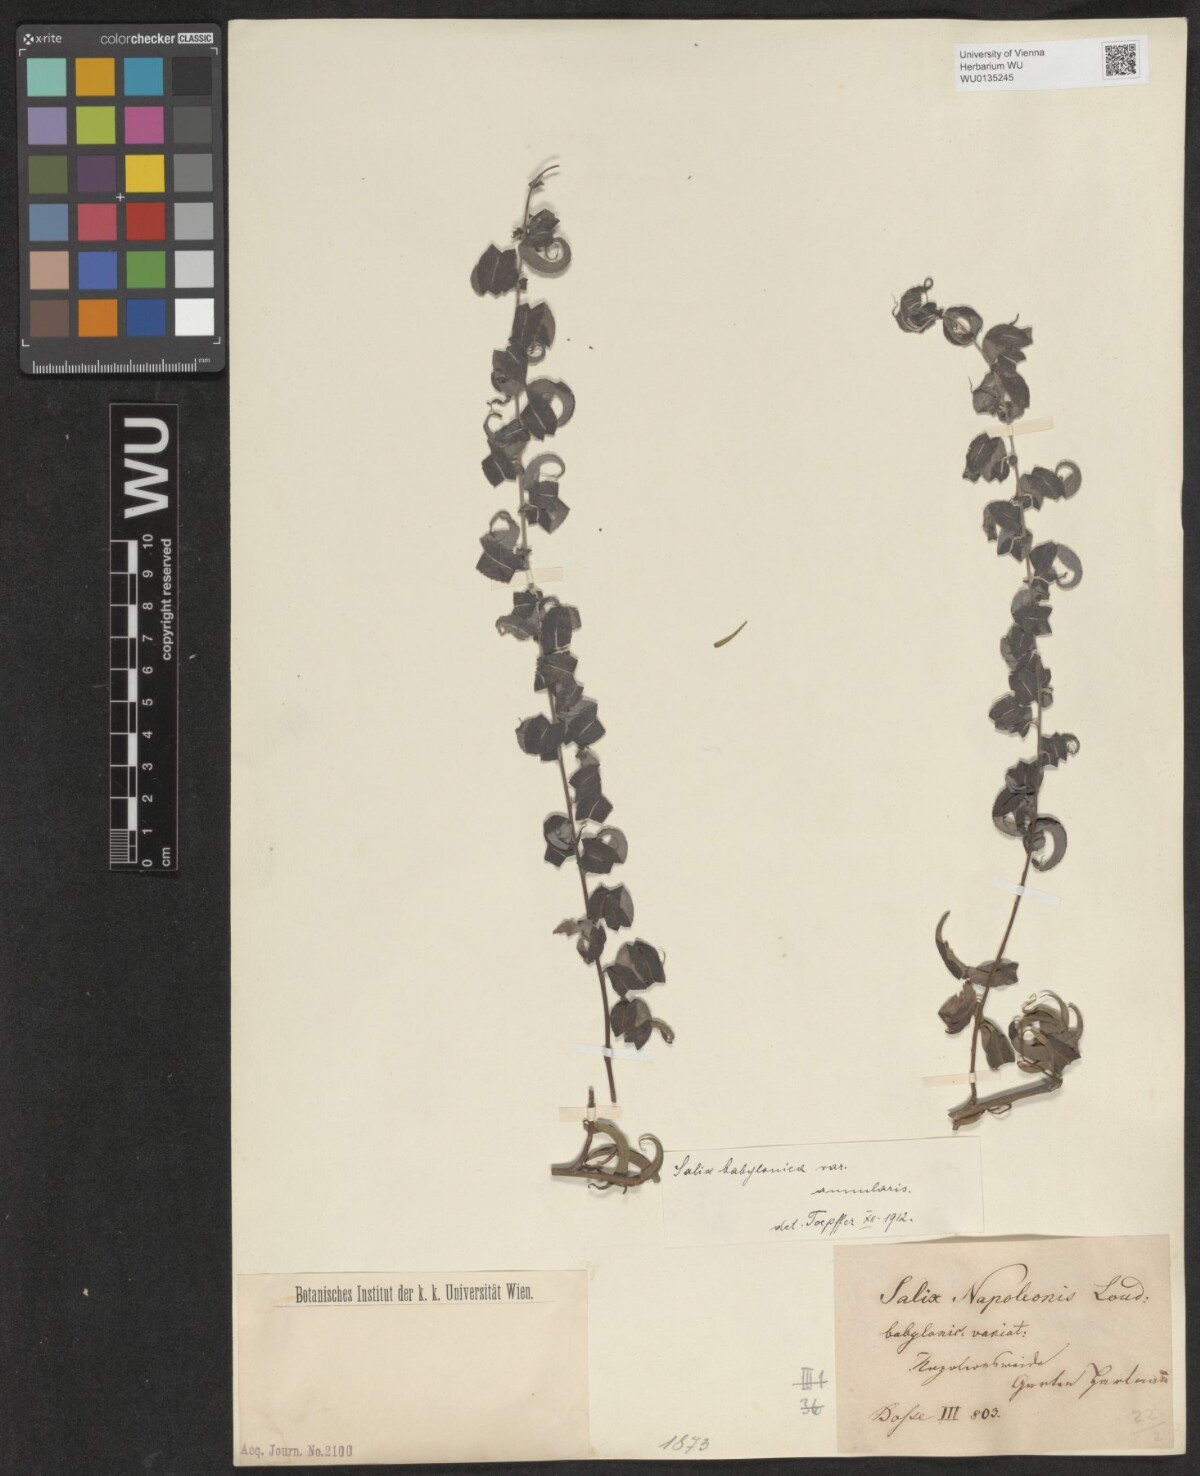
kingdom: Plantae
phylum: Tracheophyta
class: Magnoliopsida
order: Malpighiales
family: Salicaceae
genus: Salix
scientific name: Salix babylonica
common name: Weeping willow
